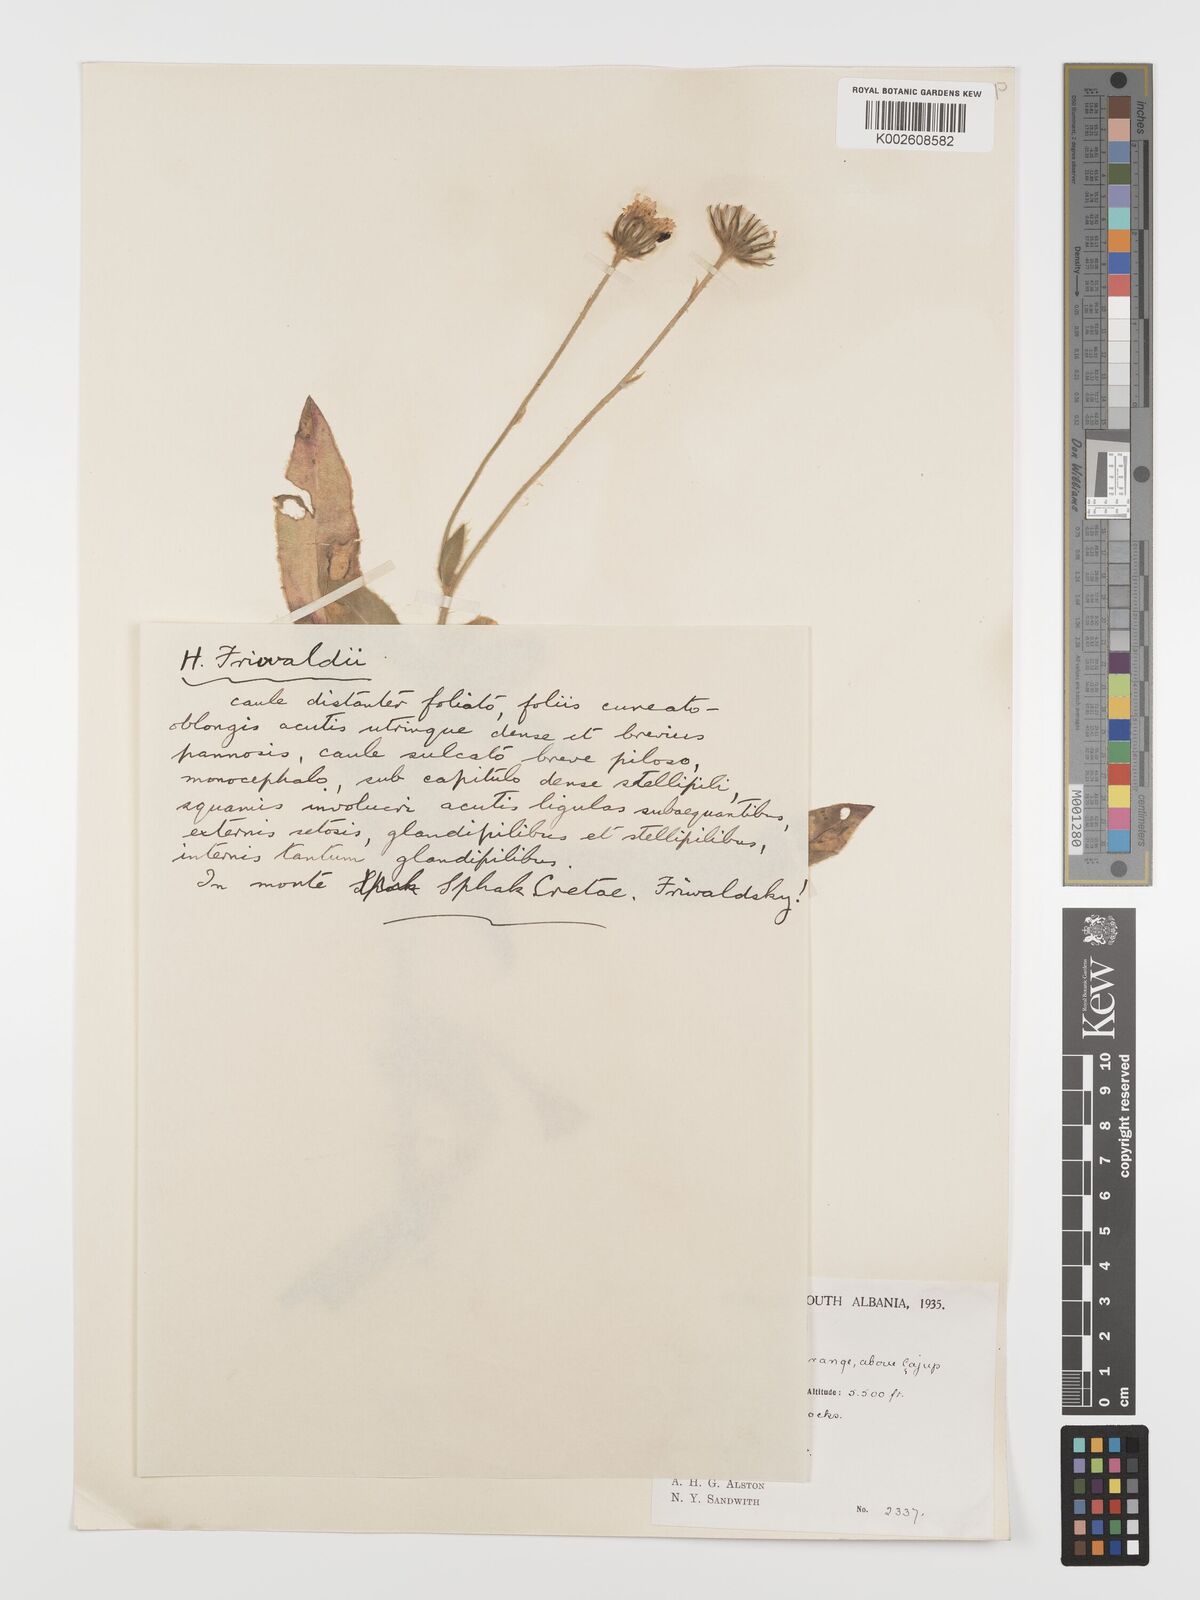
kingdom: Plantae
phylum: Tracheophyta
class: Magnoliopsida
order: Asterales
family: Asteraceae
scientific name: Asteraceae
